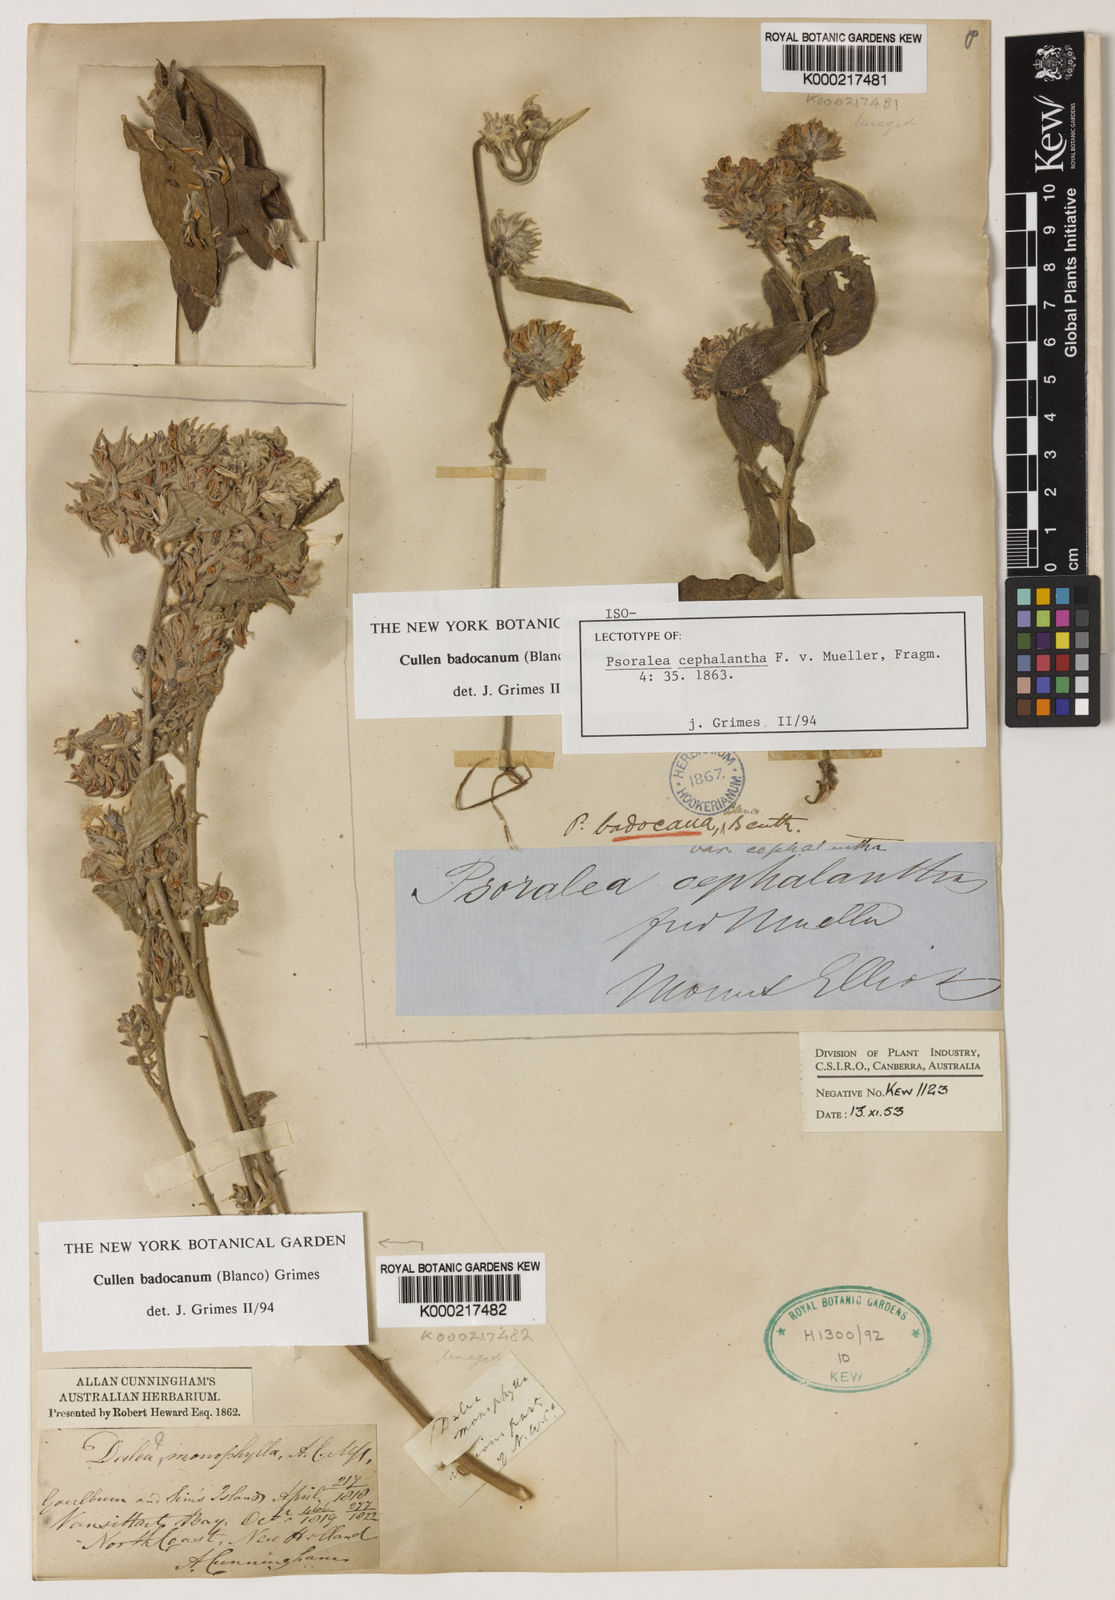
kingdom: Plantae
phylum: Tracheophyta
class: Magnoliopsida
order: Fabales
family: Fabaceae
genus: Cullen
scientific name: Cullen
